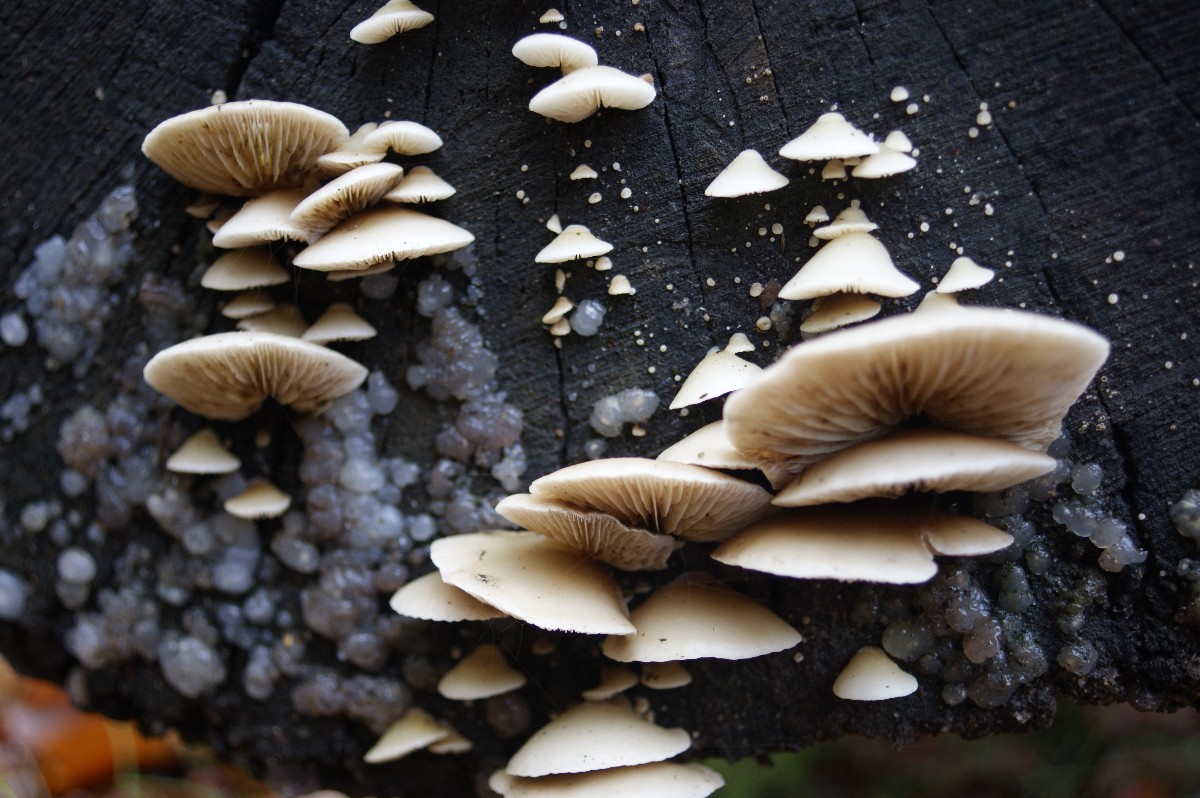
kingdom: Fungi
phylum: Basidiomycota
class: Agaricomycetes
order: Agaricales
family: Crepidotaceae
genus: Crepidotus
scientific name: Crepidotus mollis
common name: blød muslingesvamp
